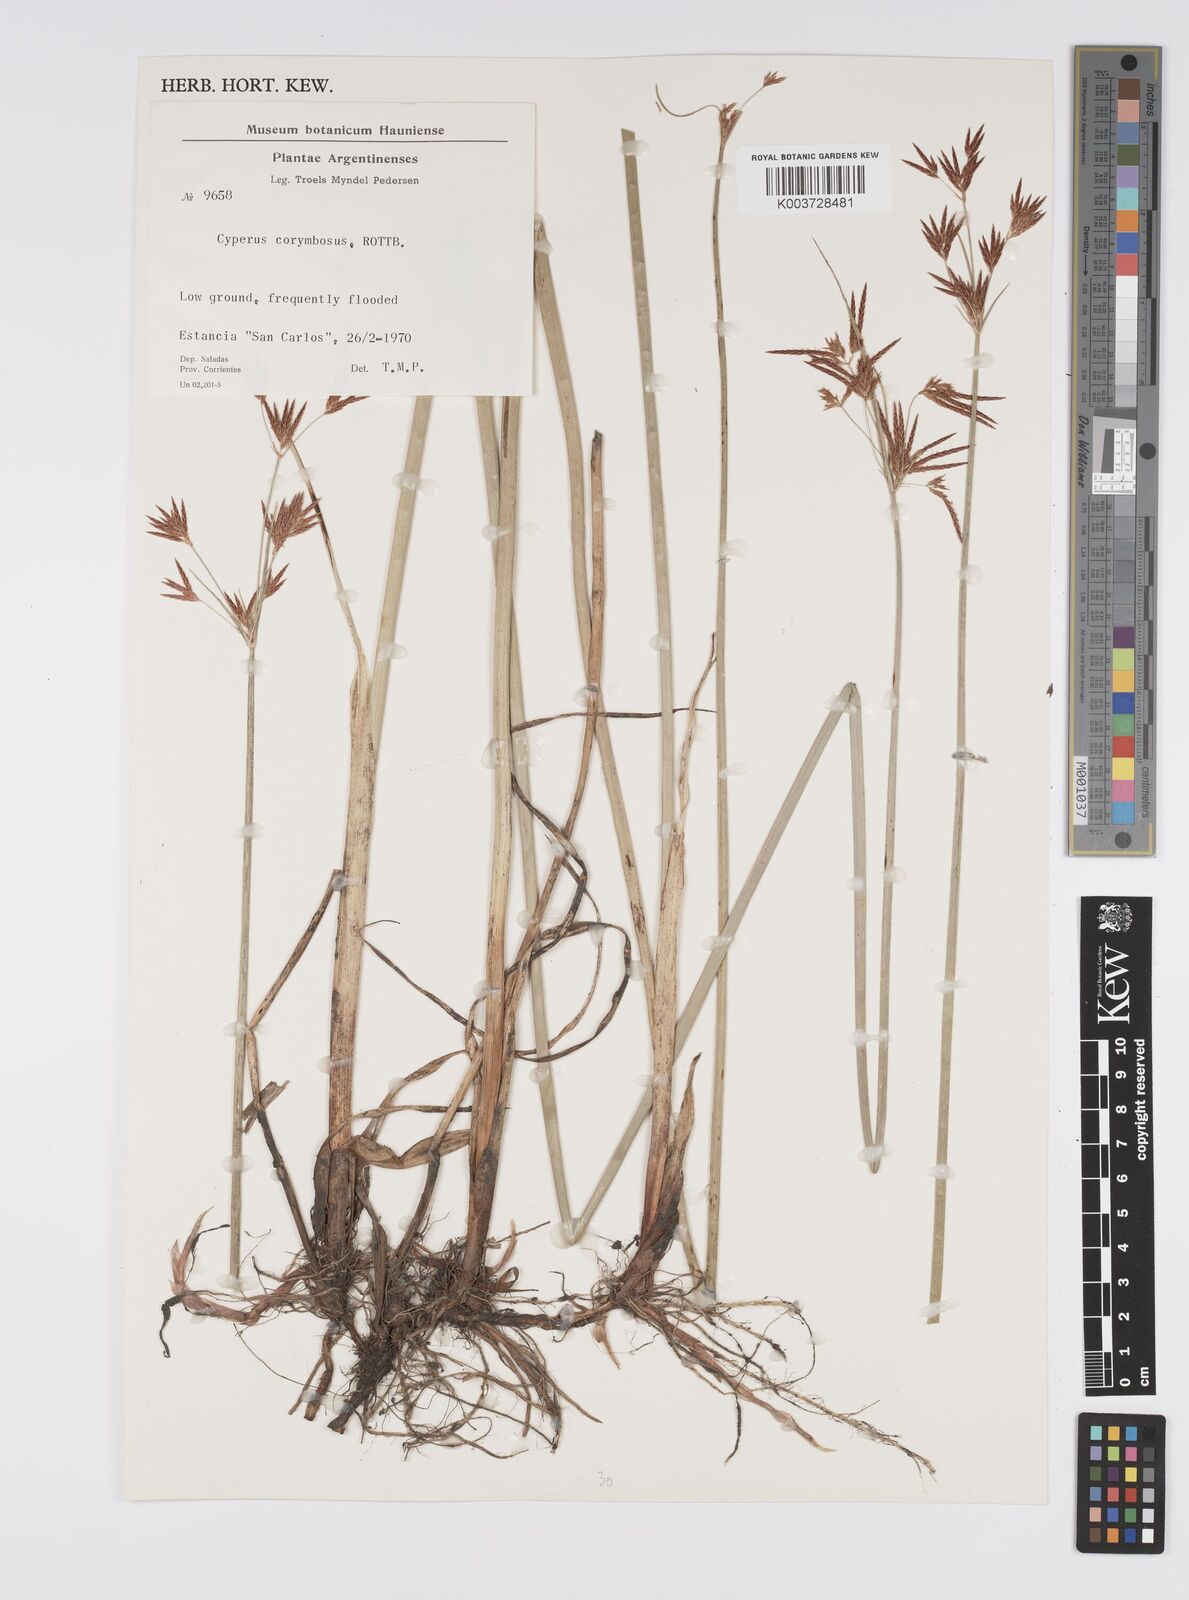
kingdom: Plantae
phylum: Tracheophyta
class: Liliopsida
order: Poales
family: Cyperaceae
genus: Cyperus
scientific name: Cyperus corymbosus
